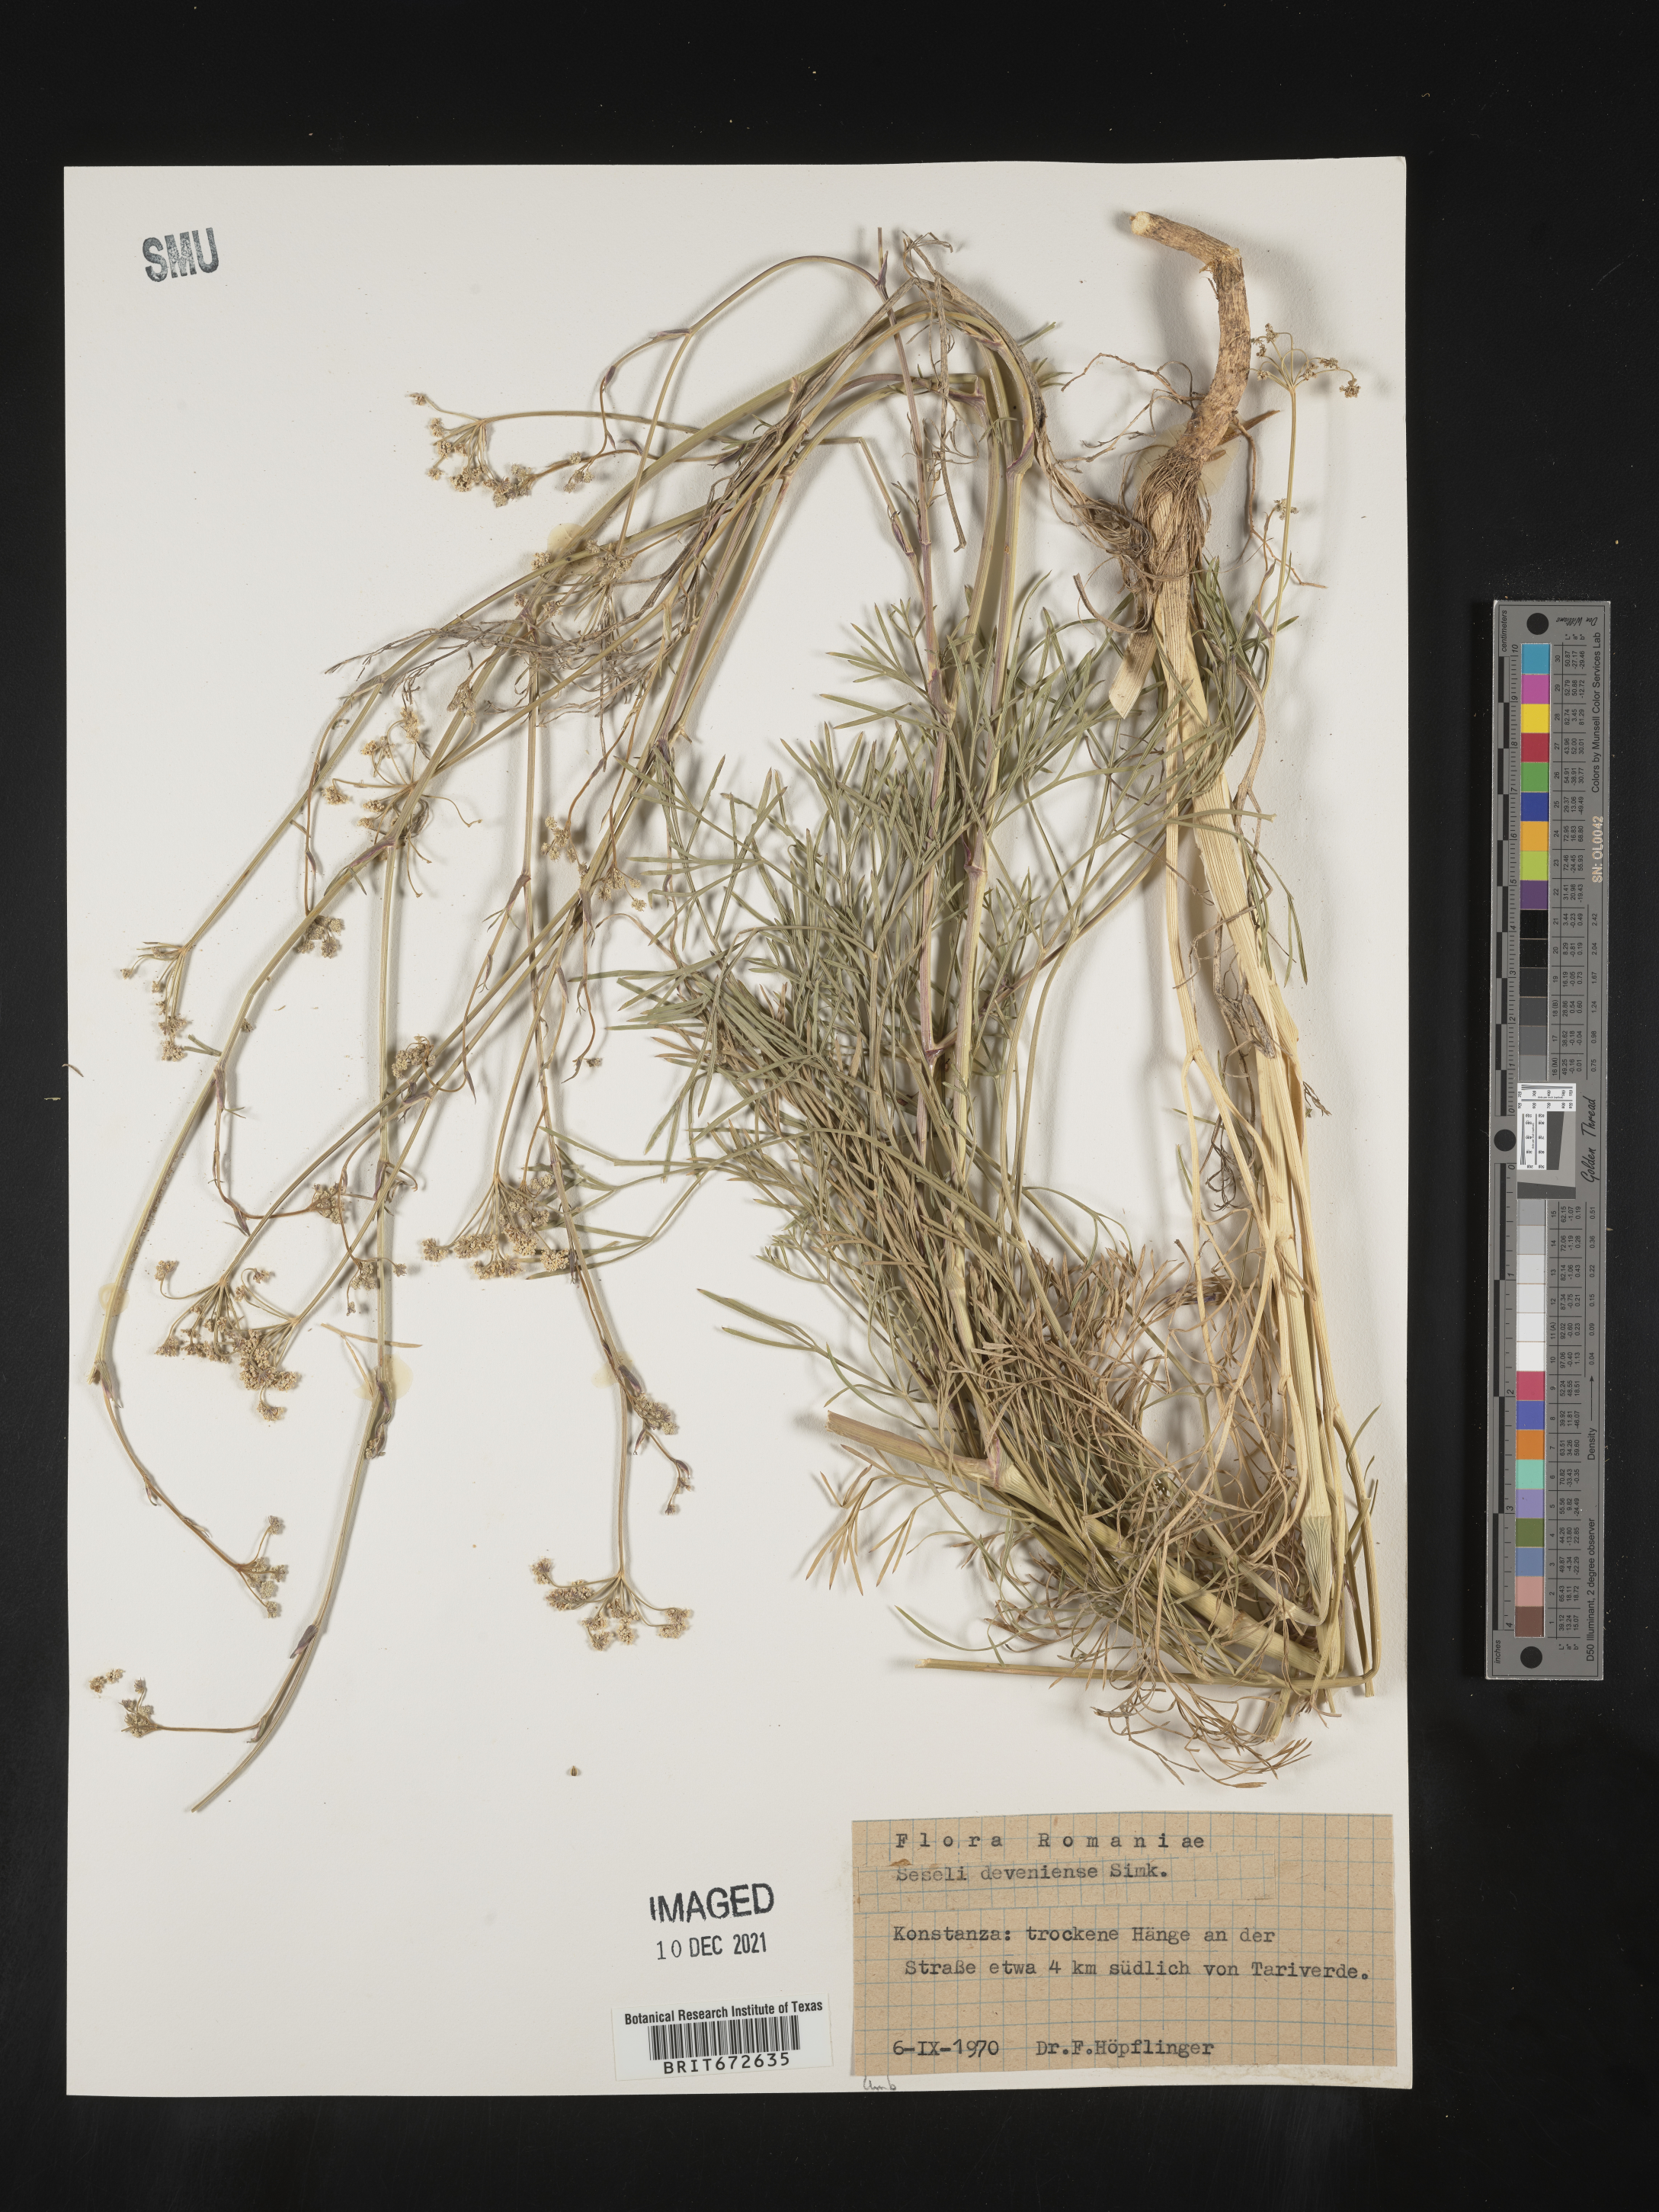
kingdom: Plantae
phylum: Tracheophyta
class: Magnoliopsida
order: Apiales
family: Apiaceae
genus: Seseli
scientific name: Seseli
